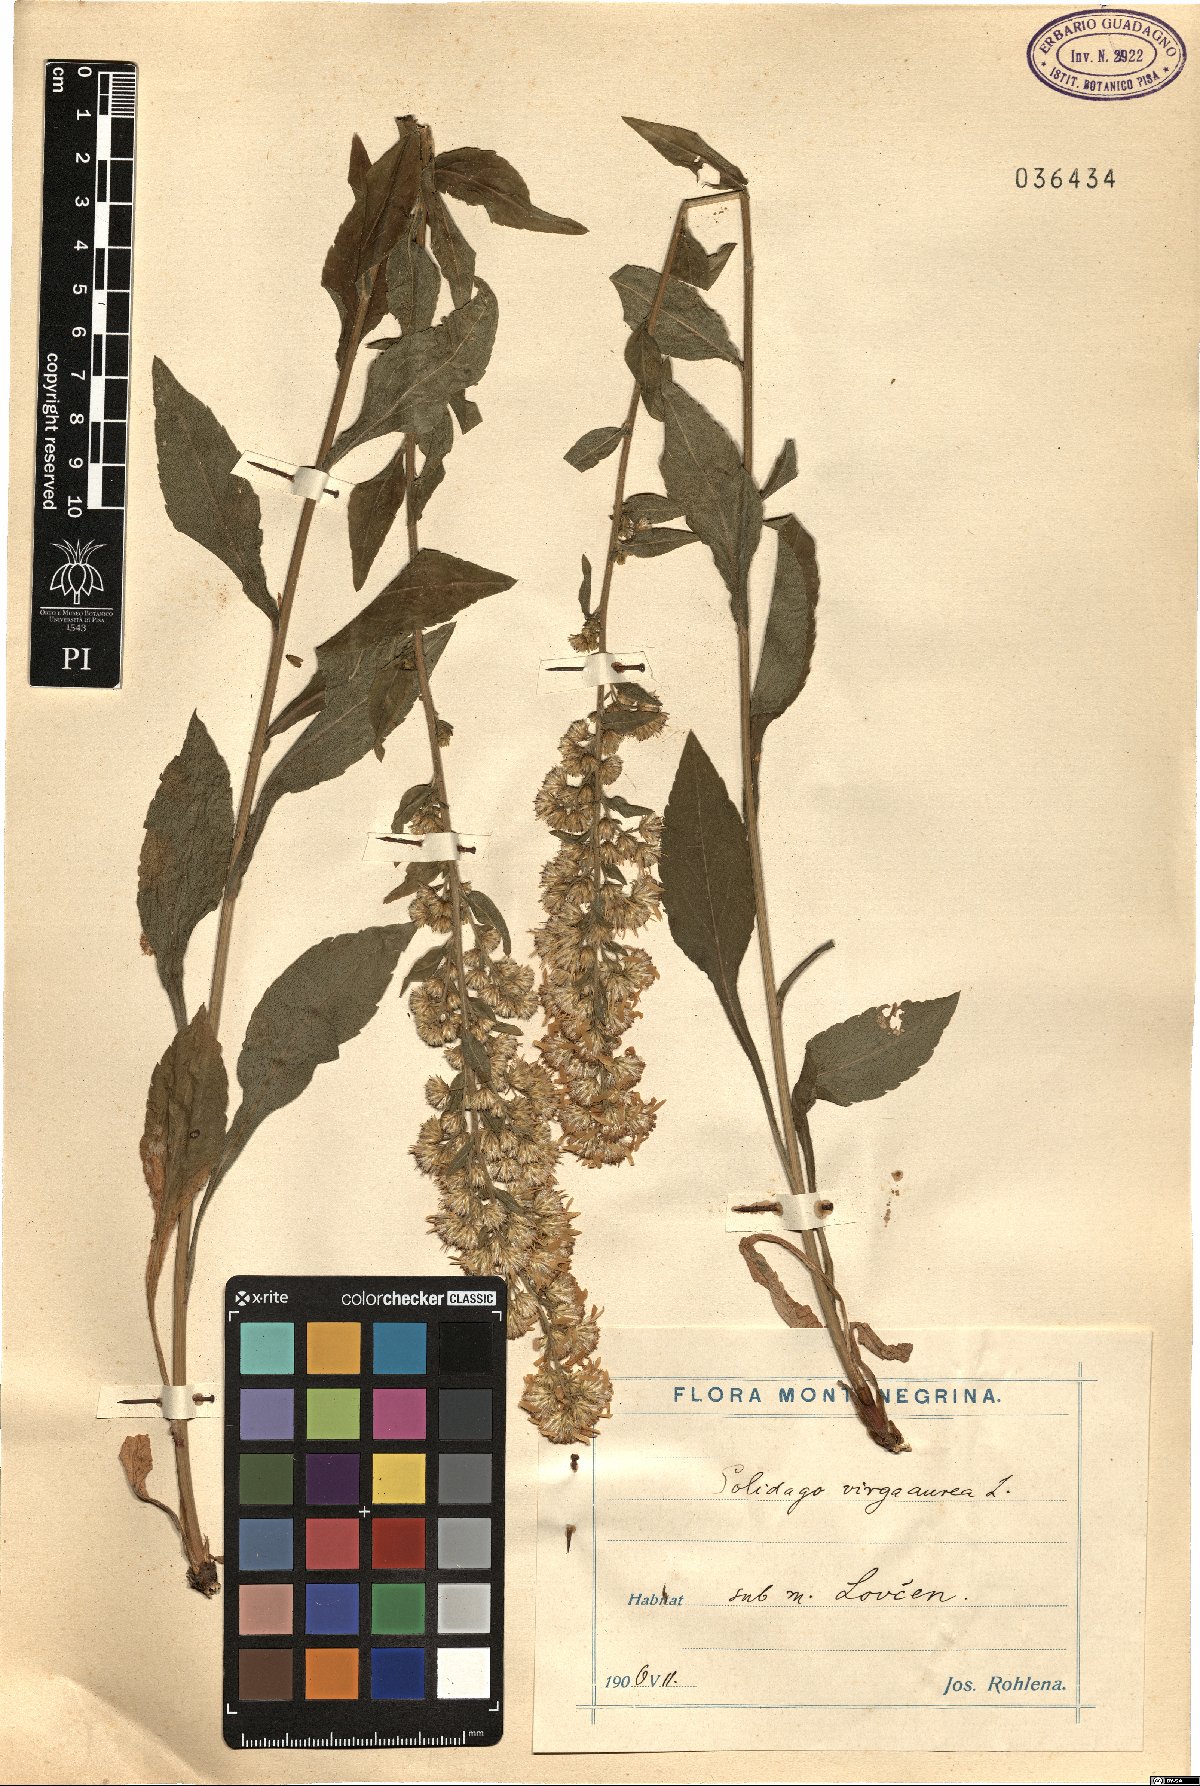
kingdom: Plantae
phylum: Tracheophyta
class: Magnoliopsida
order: Asterales
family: Asteraceae
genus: Solidago
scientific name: Solidago virgaurea
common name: Goldenrod
